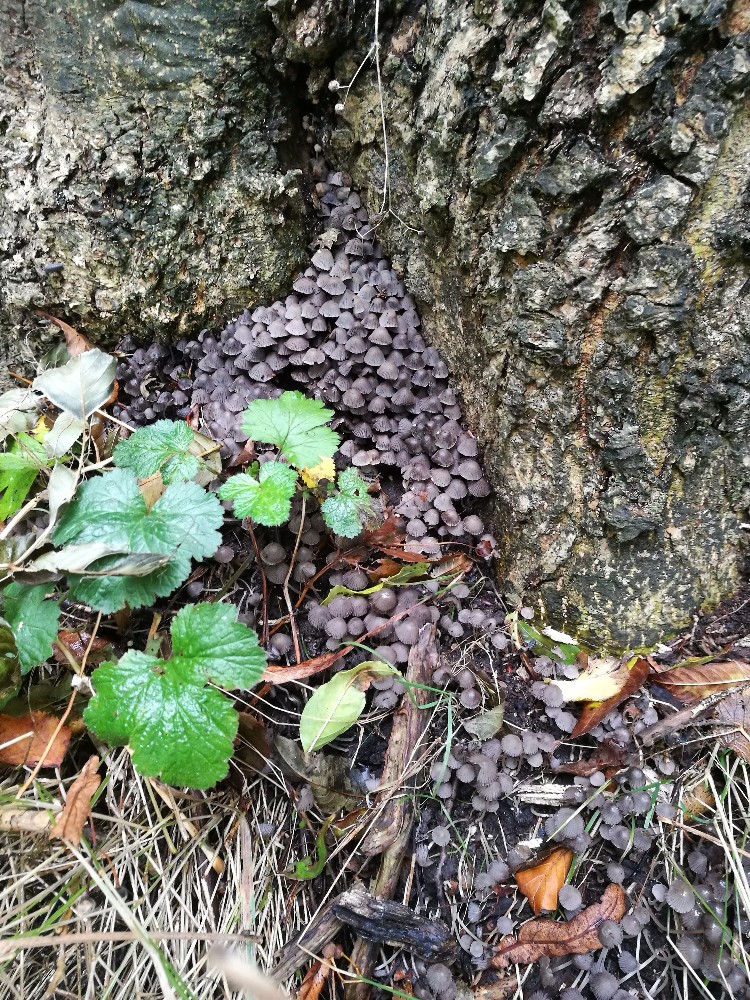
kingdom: Fungi
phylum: Basidiomycota
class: Agaricomycetes
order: Agaricales
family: Psathyrellaceae
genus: Coprinellus
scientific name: Coprinellus disseminatus
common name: bredsået blækhat
